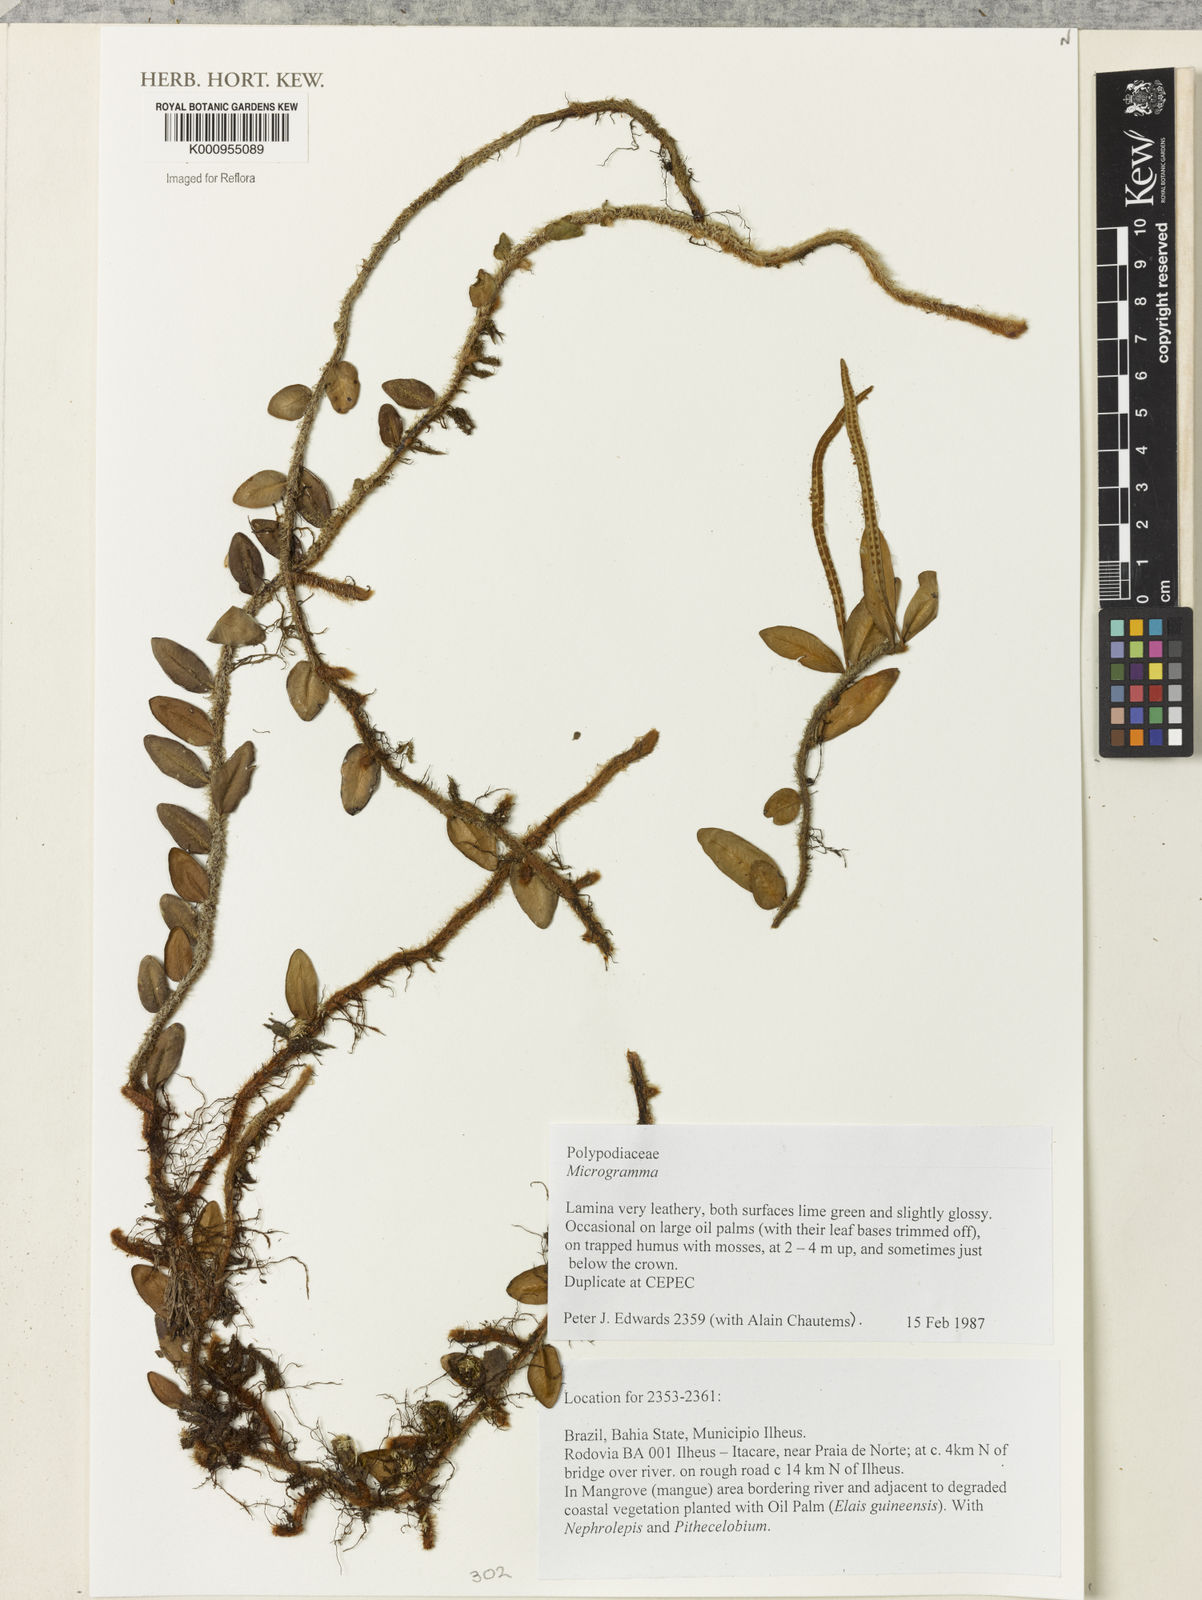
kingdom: Plantae
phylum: Tracheophyta
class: Polypodiopsida
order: Polypodiales
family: Polypodiaceae
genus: Microgramma
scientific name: Microgramma
